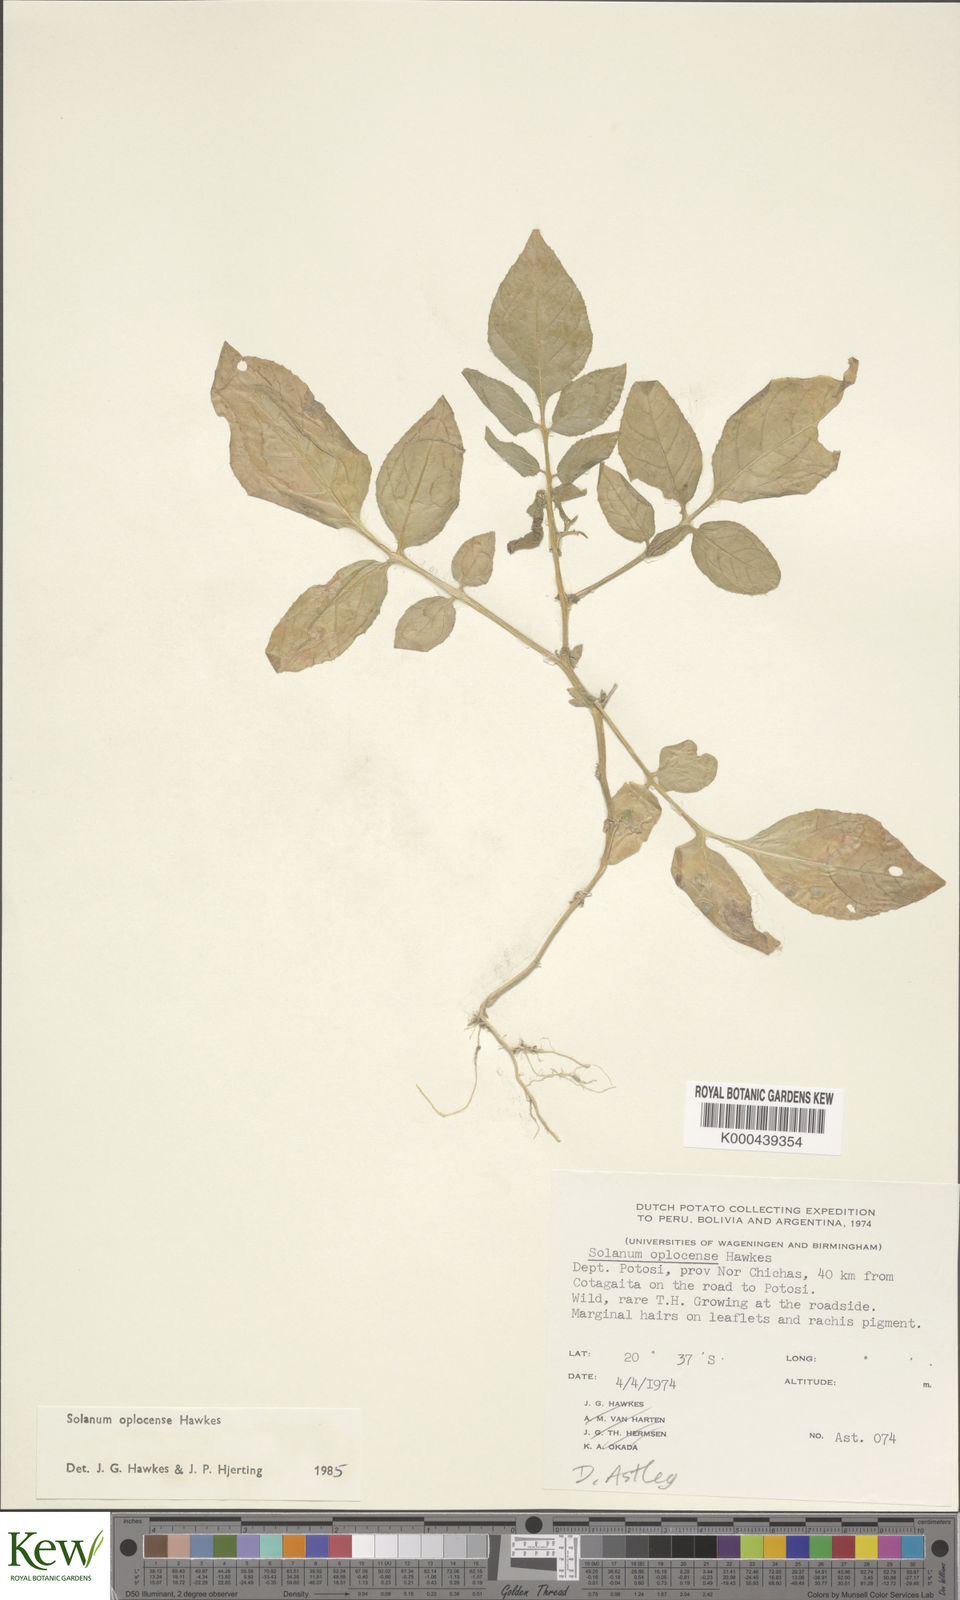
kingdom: Plantae
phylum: Tracheophyta
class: Magnoliopsida
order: Solanales
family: Solanaceae
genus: Solanum
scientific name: Solanum brevicaule
